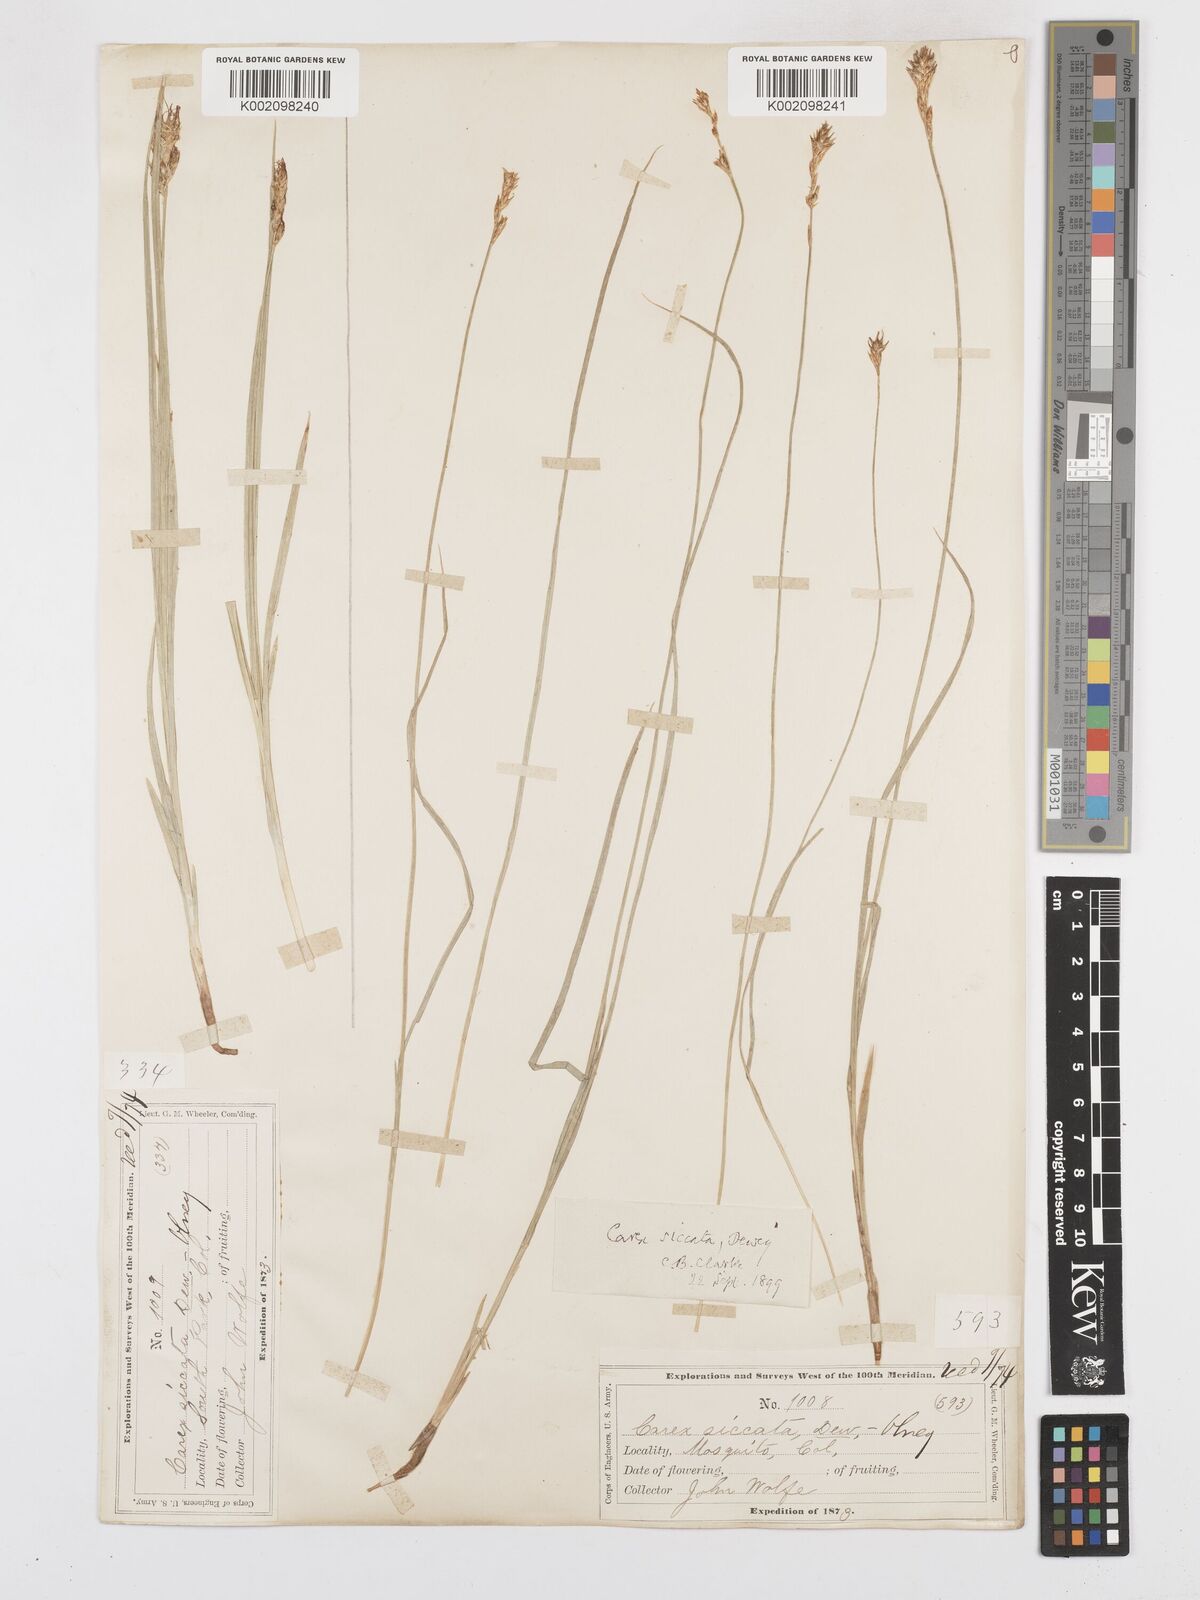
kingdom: Plantae
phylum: Tracheophyta
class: Liliopsida
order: Poales
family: Cyperaceae
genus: Carex
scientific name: Carex foenea
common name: Bronze sedge
